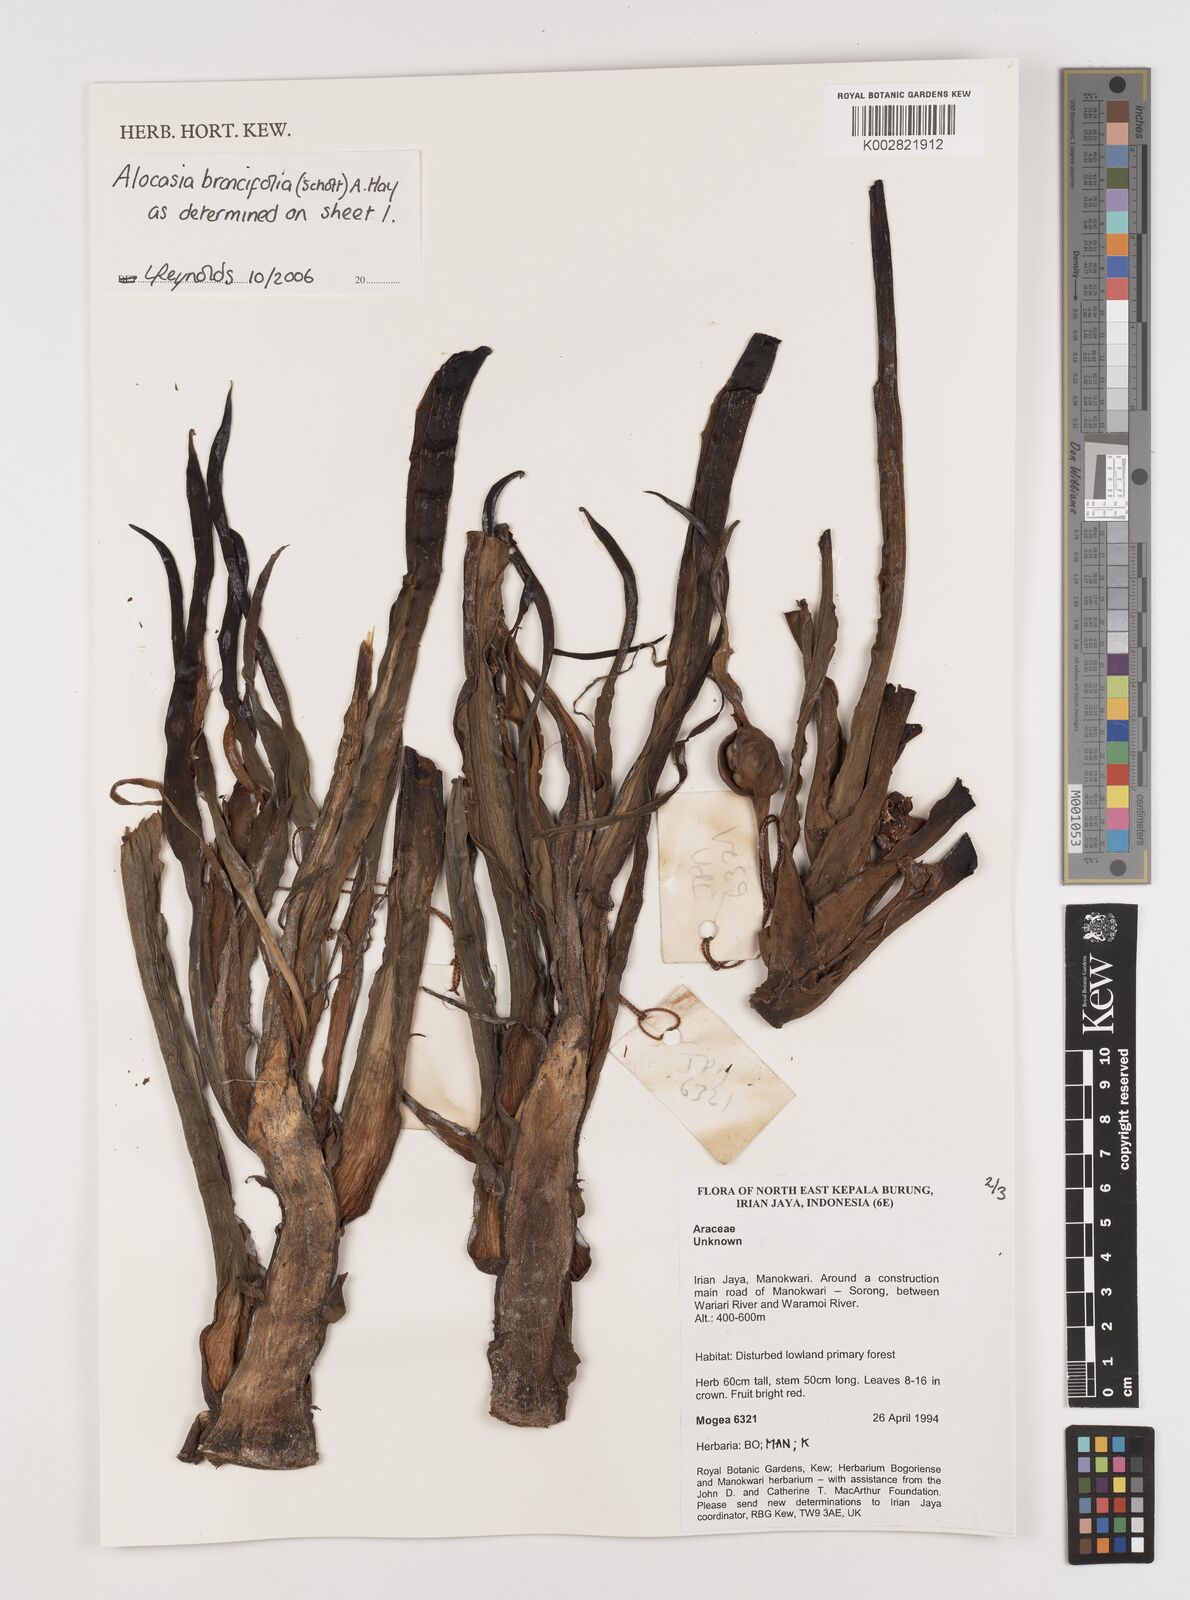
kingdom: Plantae
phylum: Tracheophyta
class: Liliopsida
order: Alismatales
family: Araceae
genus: Alocasia
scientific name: Alocasia brancifolia
